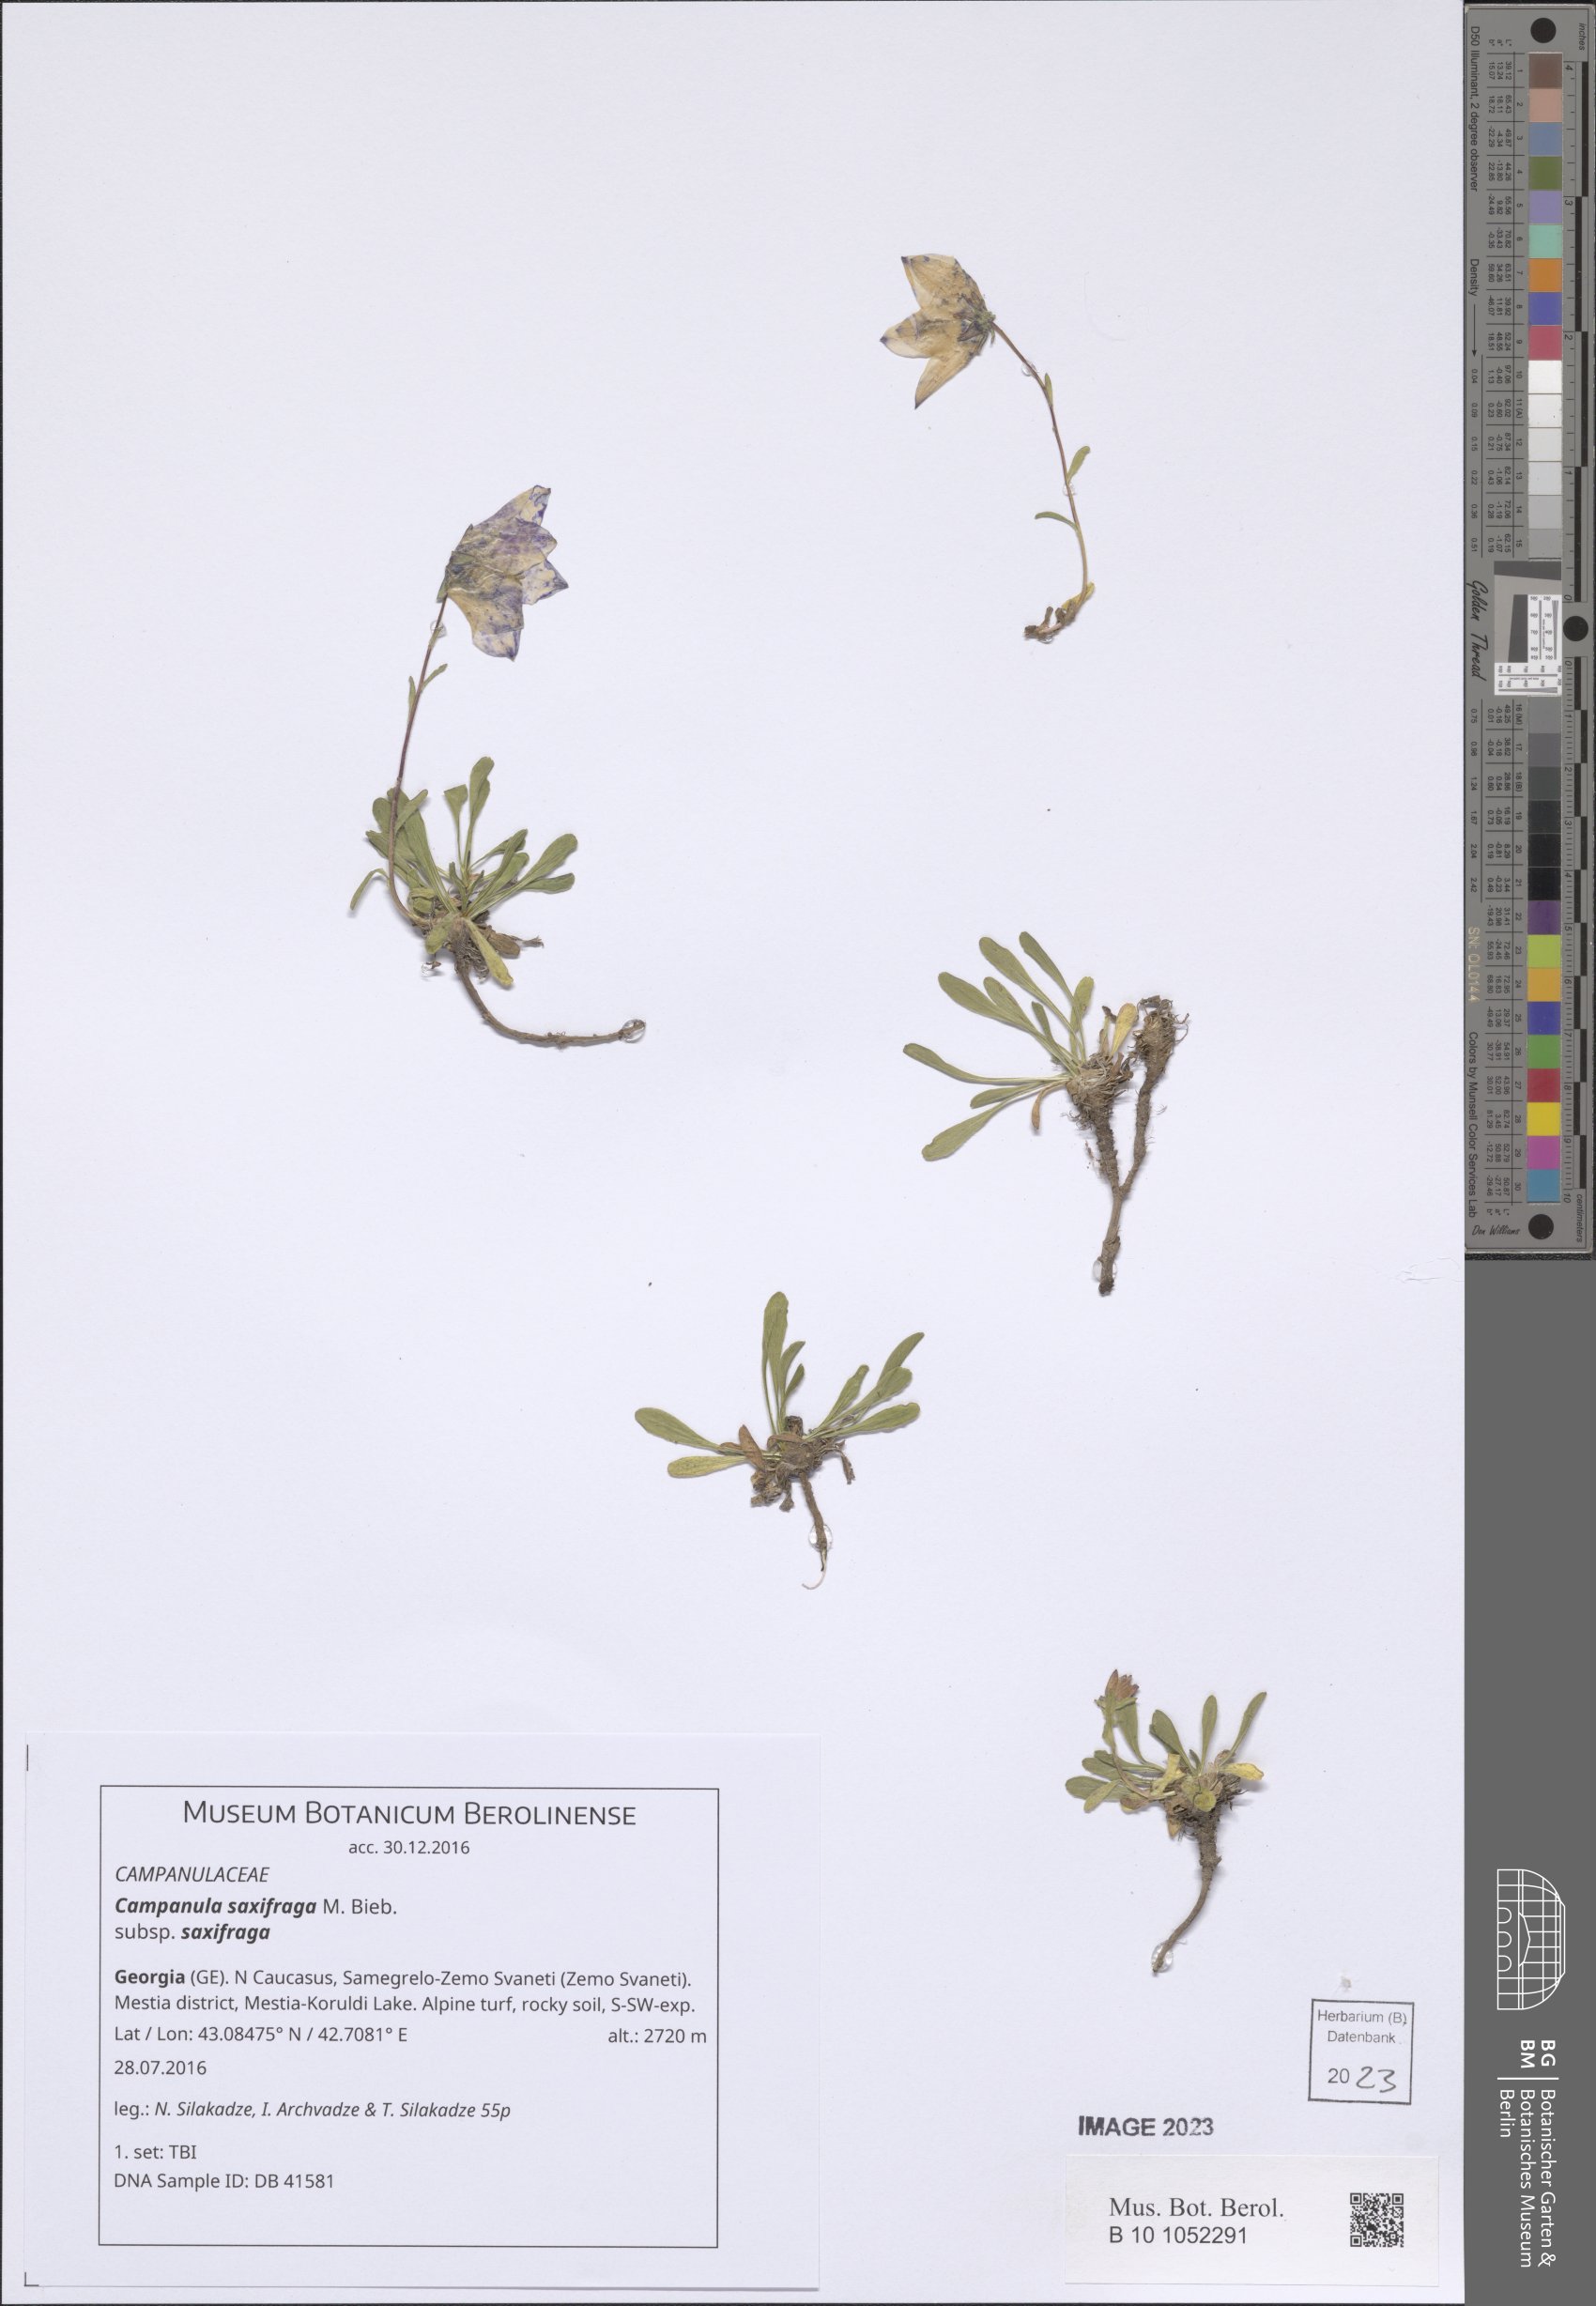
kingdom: Plantae
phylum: Tracheophyta
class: Magnoliopsida
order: Asterales
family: Campanulaceae
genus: Campanula
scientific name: Campanula saxifraga
